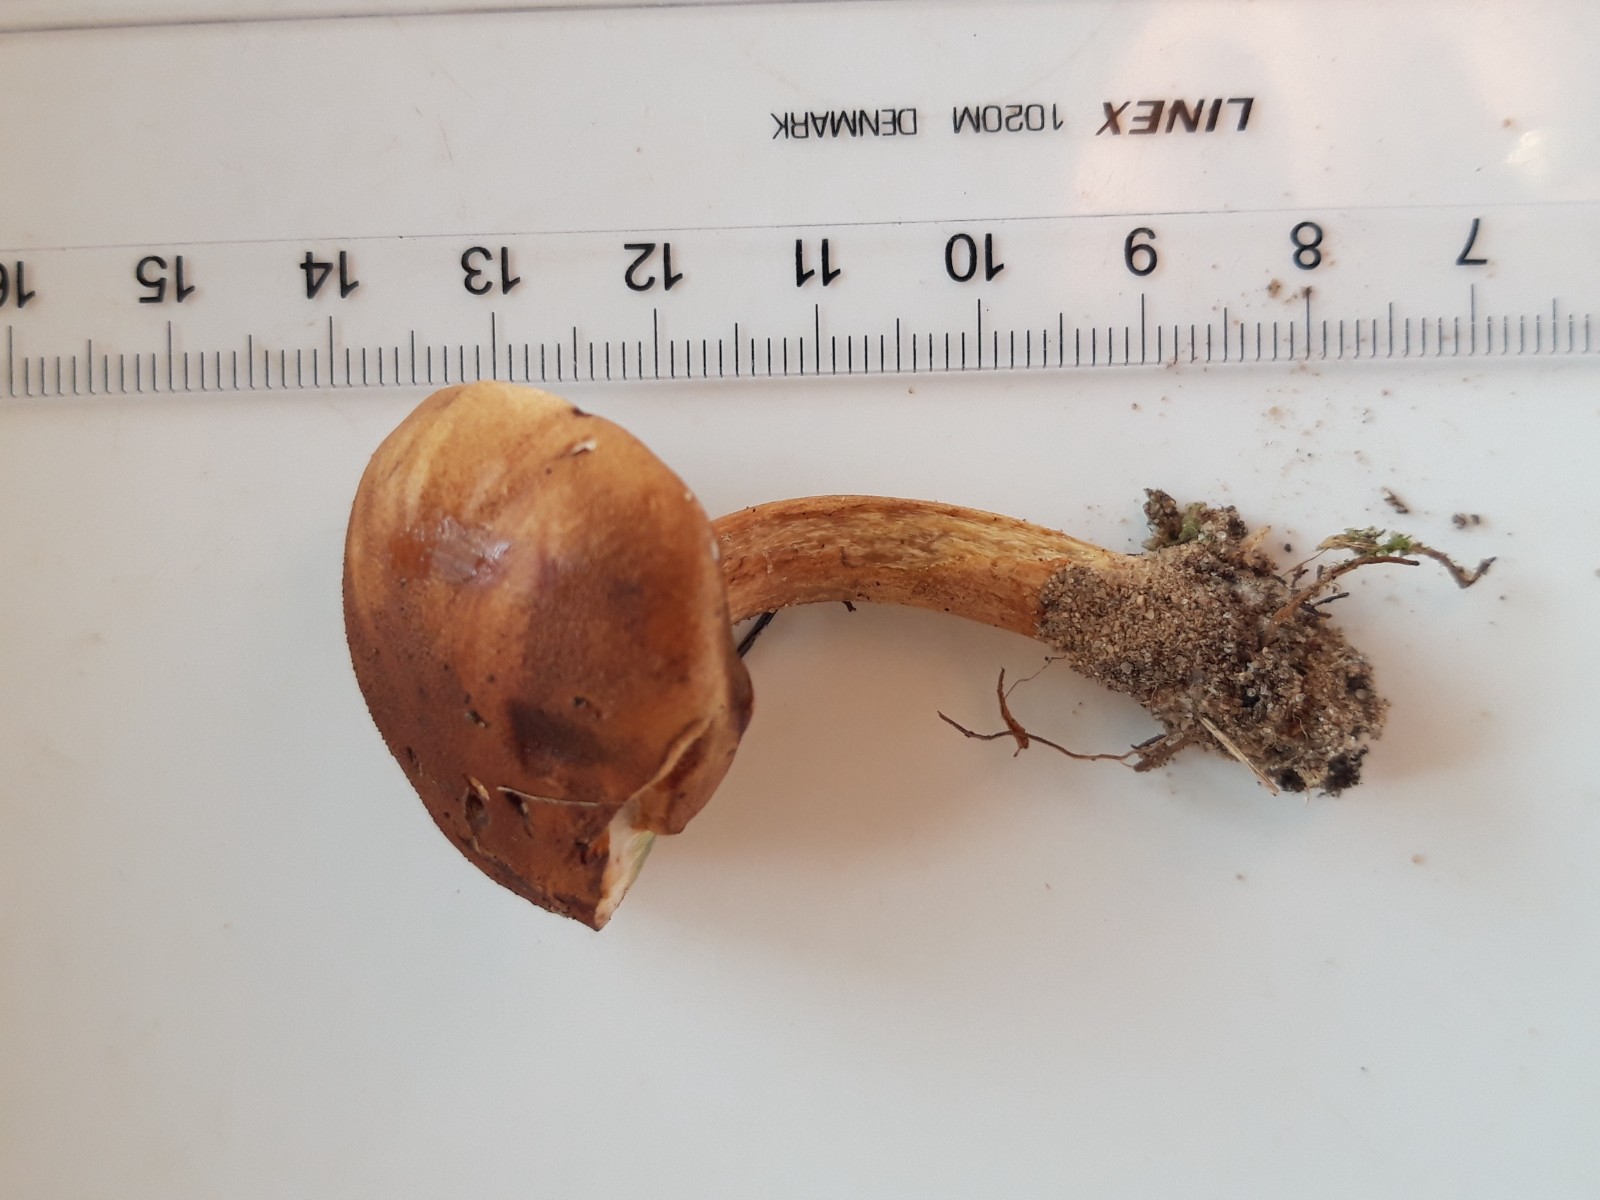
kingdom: Fungi
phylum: Basidiomycota
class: Agaricomycetes
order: Boletales
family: Boletaceae
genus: Imleria
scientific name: Imleria badia
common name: brunstokket rørhat
